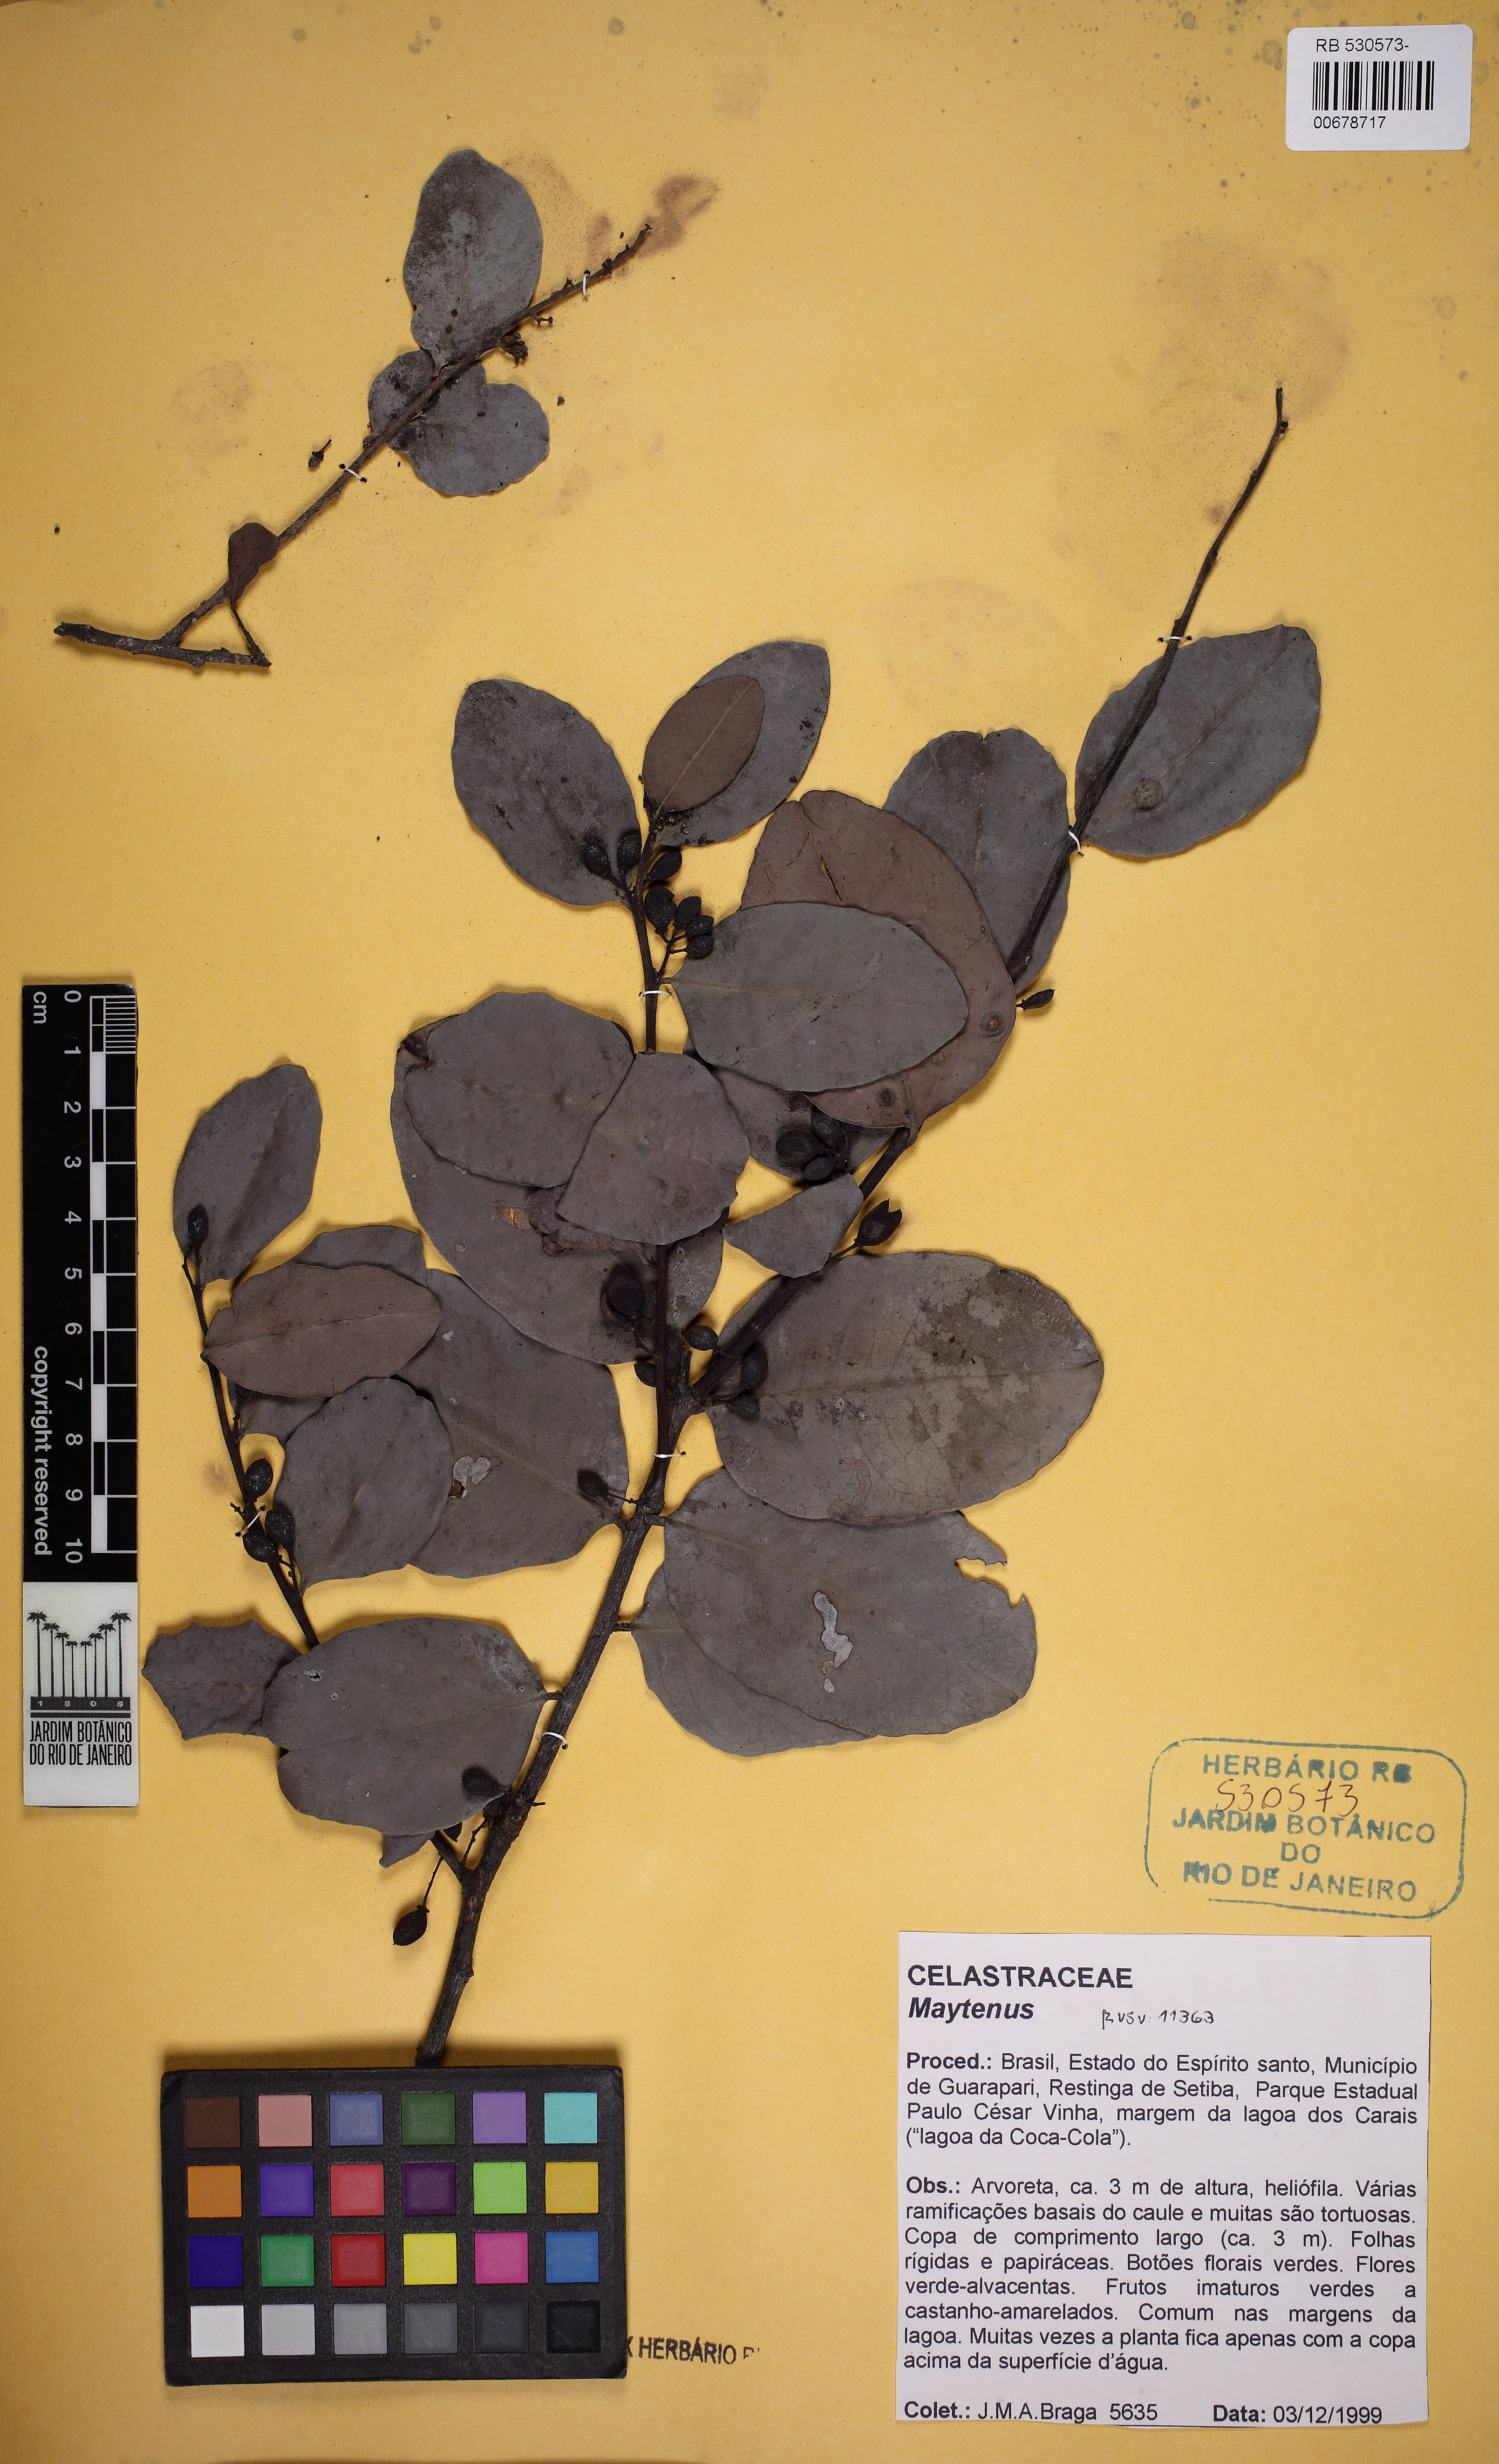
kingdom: Plantae
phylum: Tracheophyta
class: Magnoliopsida
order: Celastrales
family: Celastraceae
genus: Monteverdia
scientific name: Monteverdia obtusifolia
